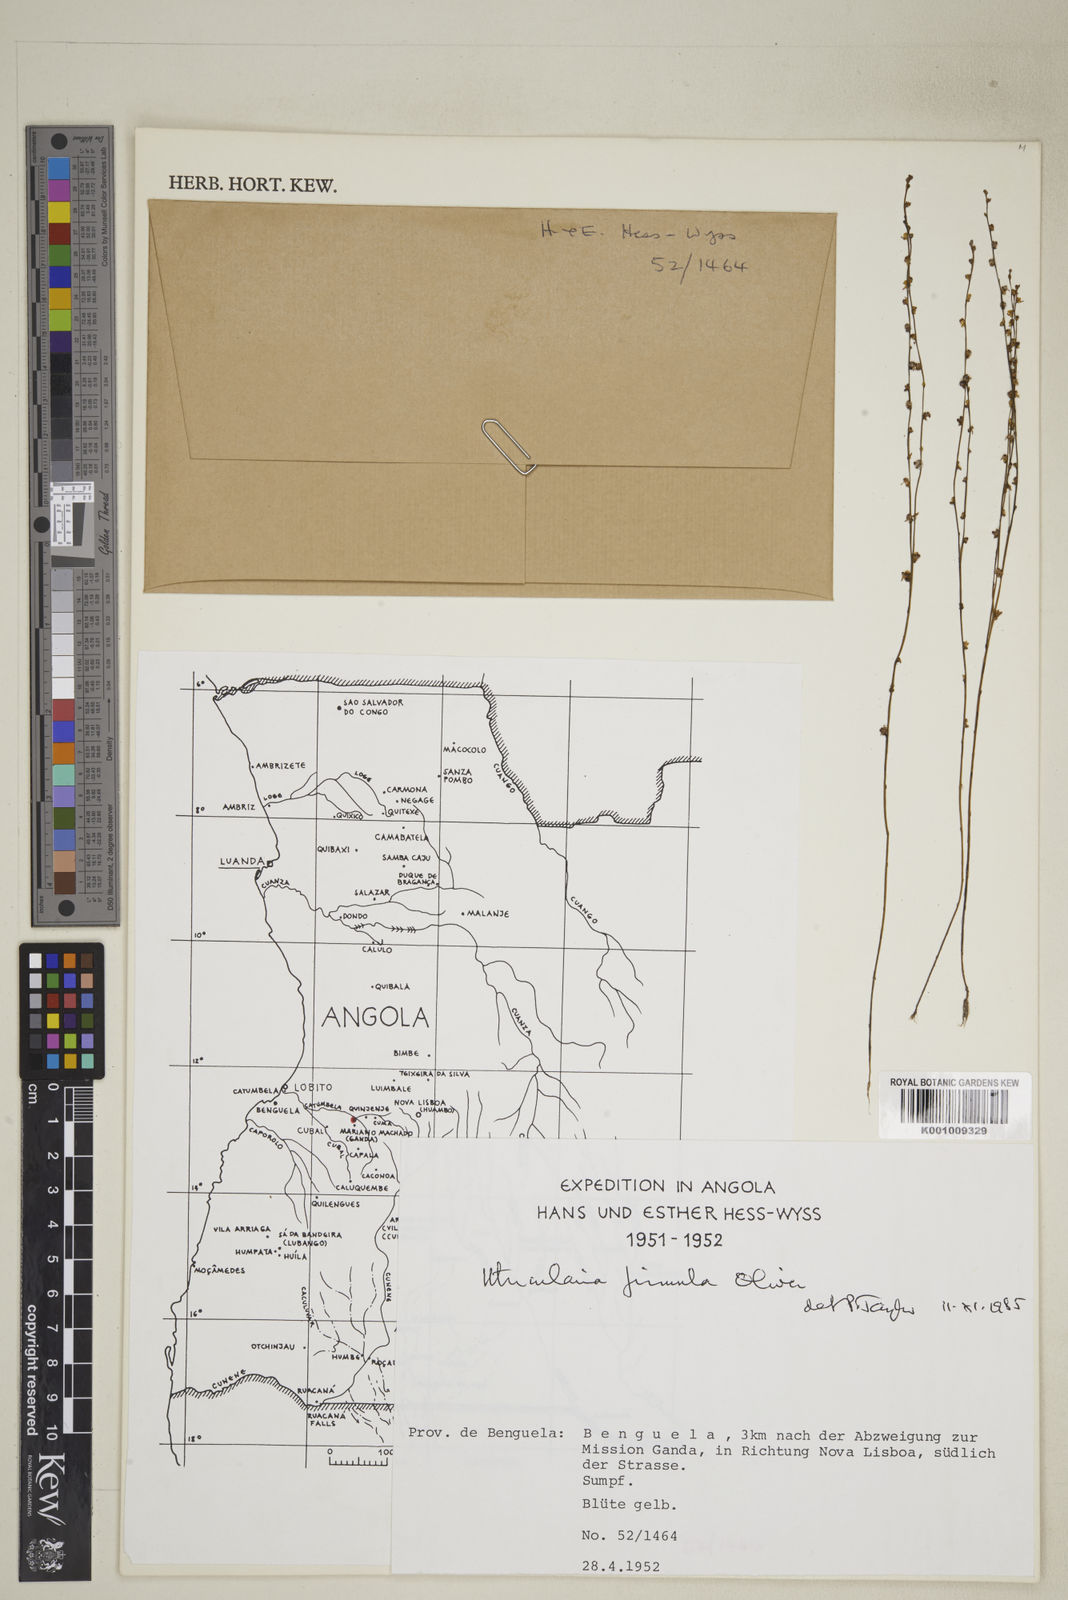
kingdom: Plantae
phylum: Tracheophyta
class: Magnoliopsida
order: Lamiales
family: Lentibulariaceae
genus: Utricularia
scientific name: Utricularia firmula
